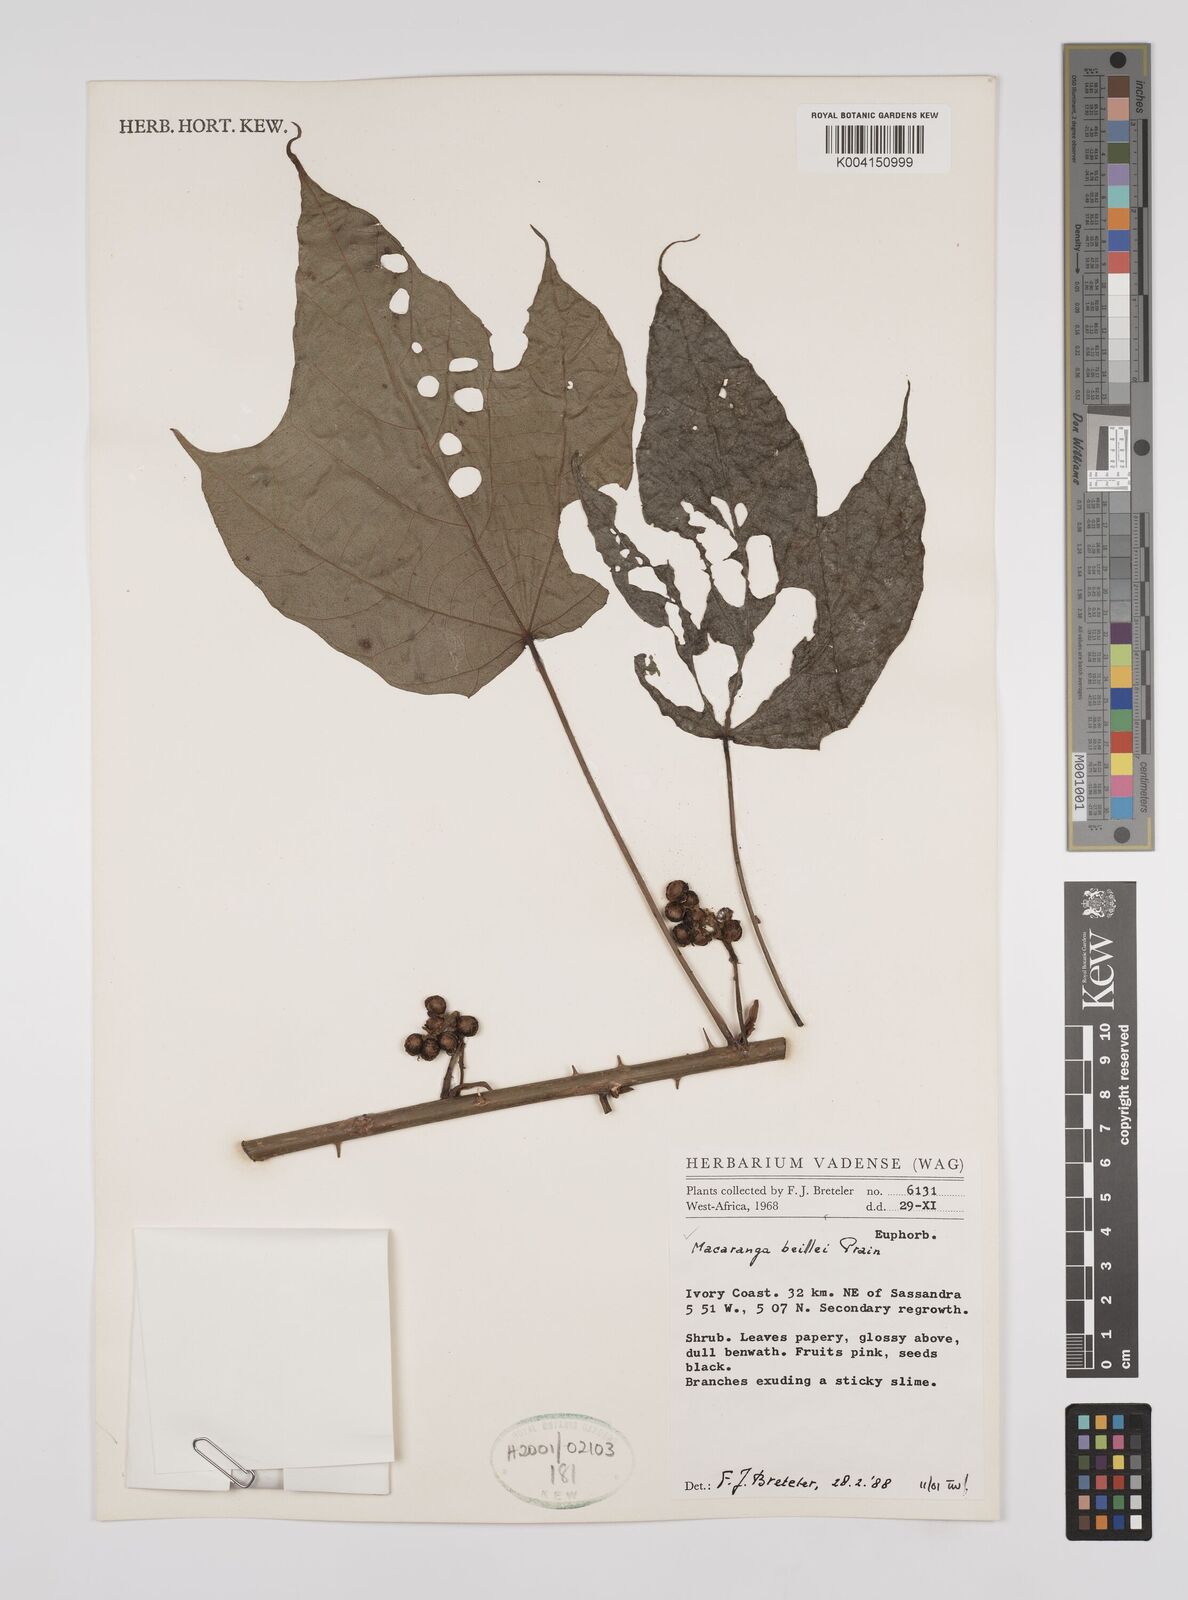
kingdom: Plantae
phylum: Tracheophyta
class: Magnoliopsida
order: Malpighiales
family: Euphorbiaceae
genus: Macaranga
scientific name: Macaranga beillei
